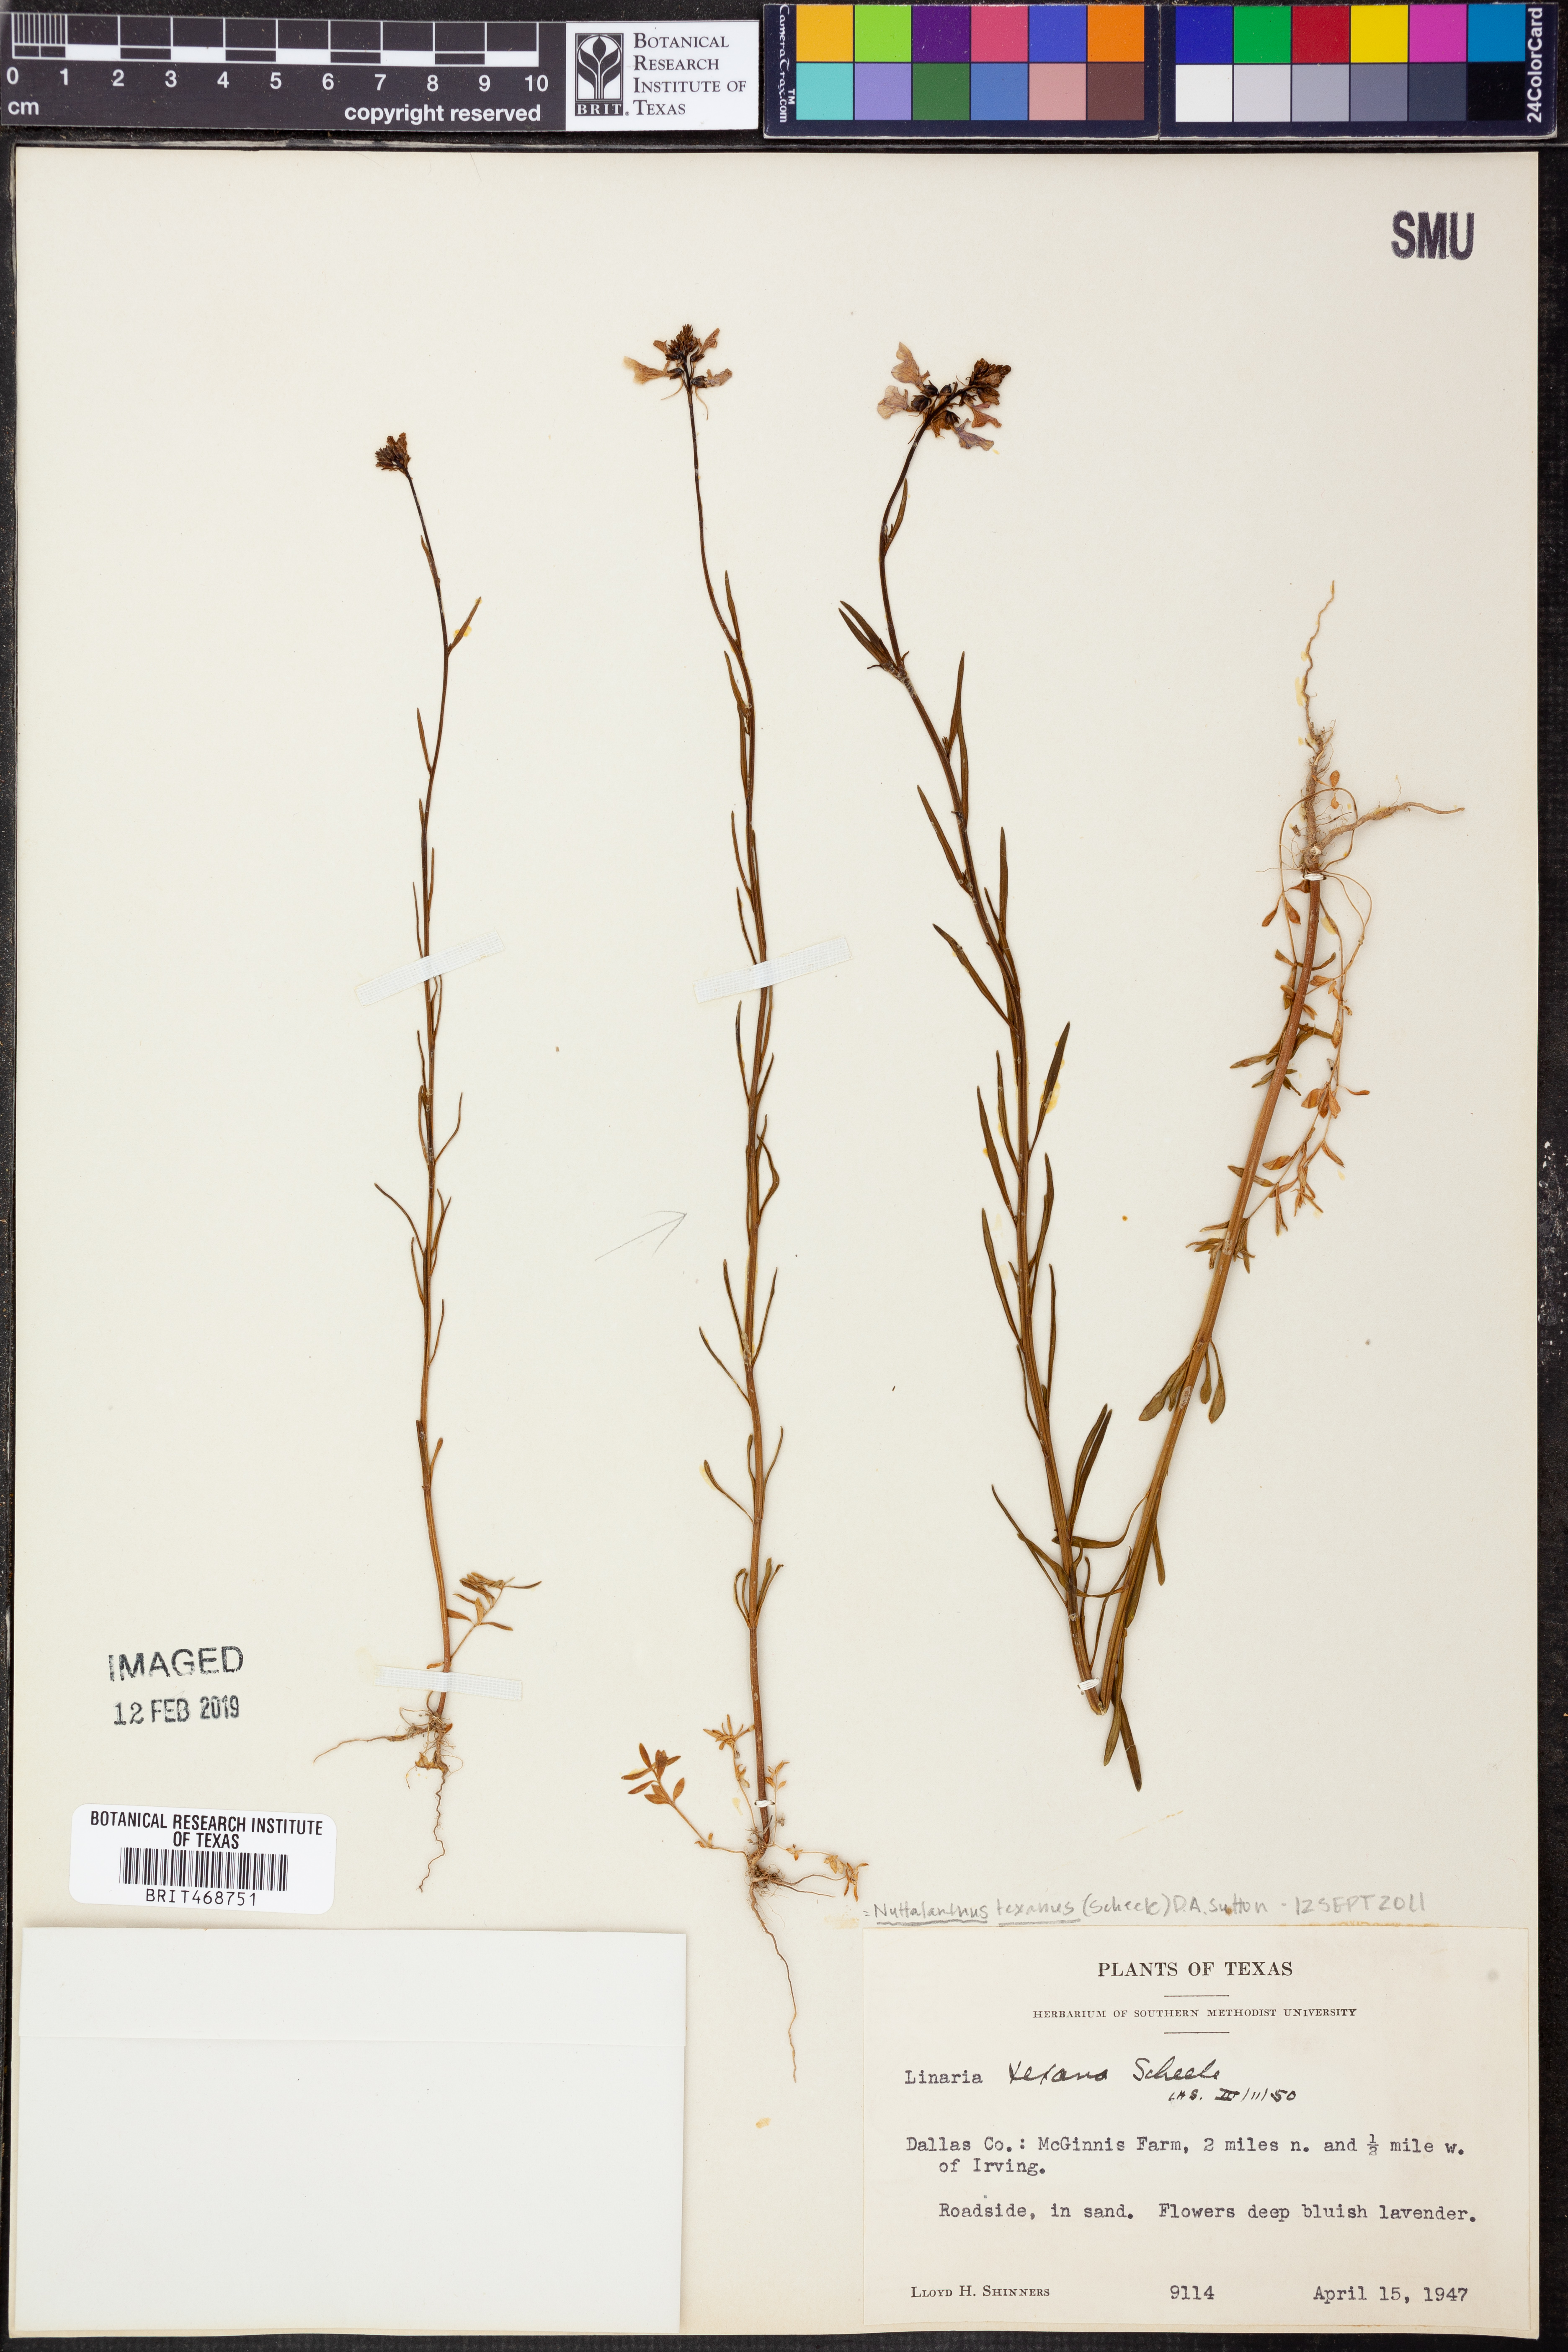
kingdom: Plantae
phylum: Tracheophyta
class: Magnoliopsida
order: Lamiales
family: Plantaginaceae
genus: Nuttallanthus
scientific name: Nuttallanthus texanus
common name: Texas toadflax
